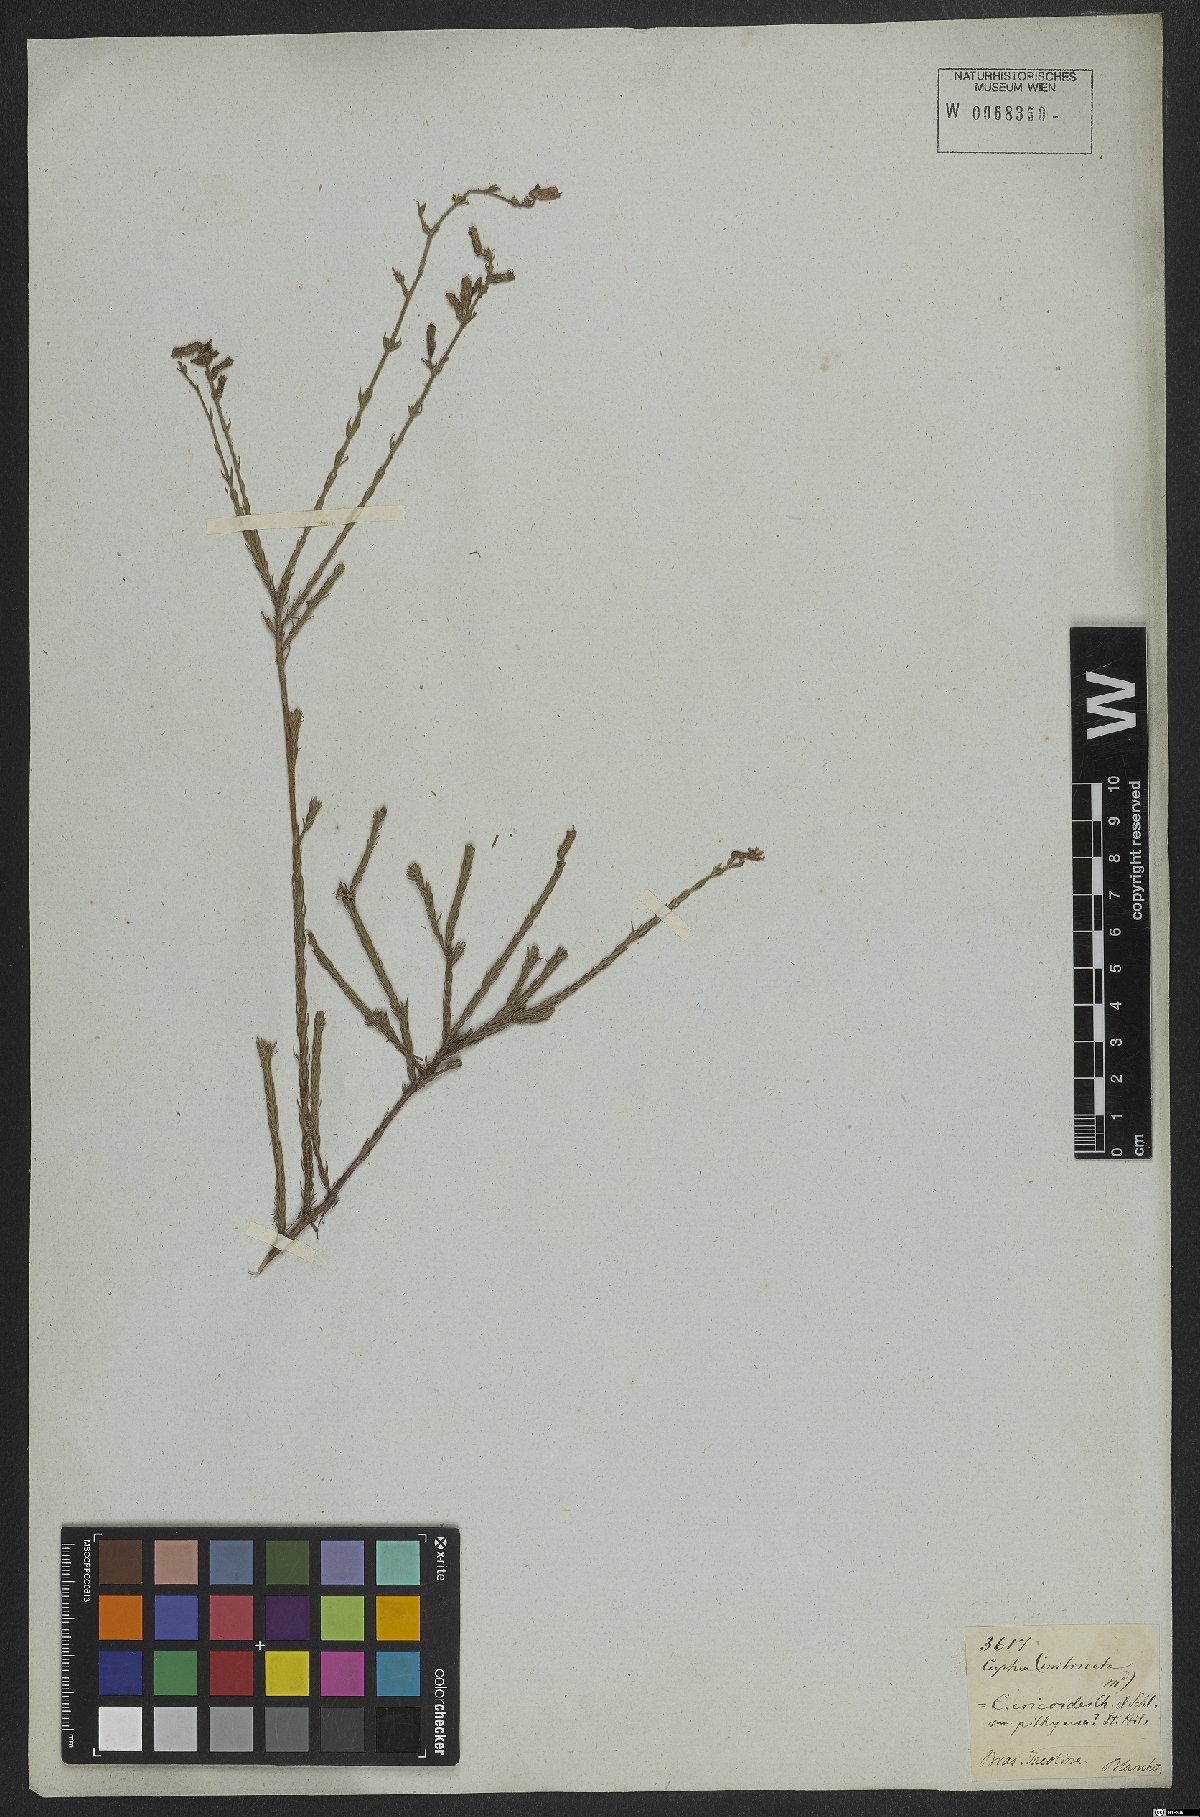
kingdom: Plantae
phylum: Tracheophyta
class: Magnoliopsida
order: Myrtales
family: Lythraceae
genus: Cuphea
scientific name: Cuphea ericoides
